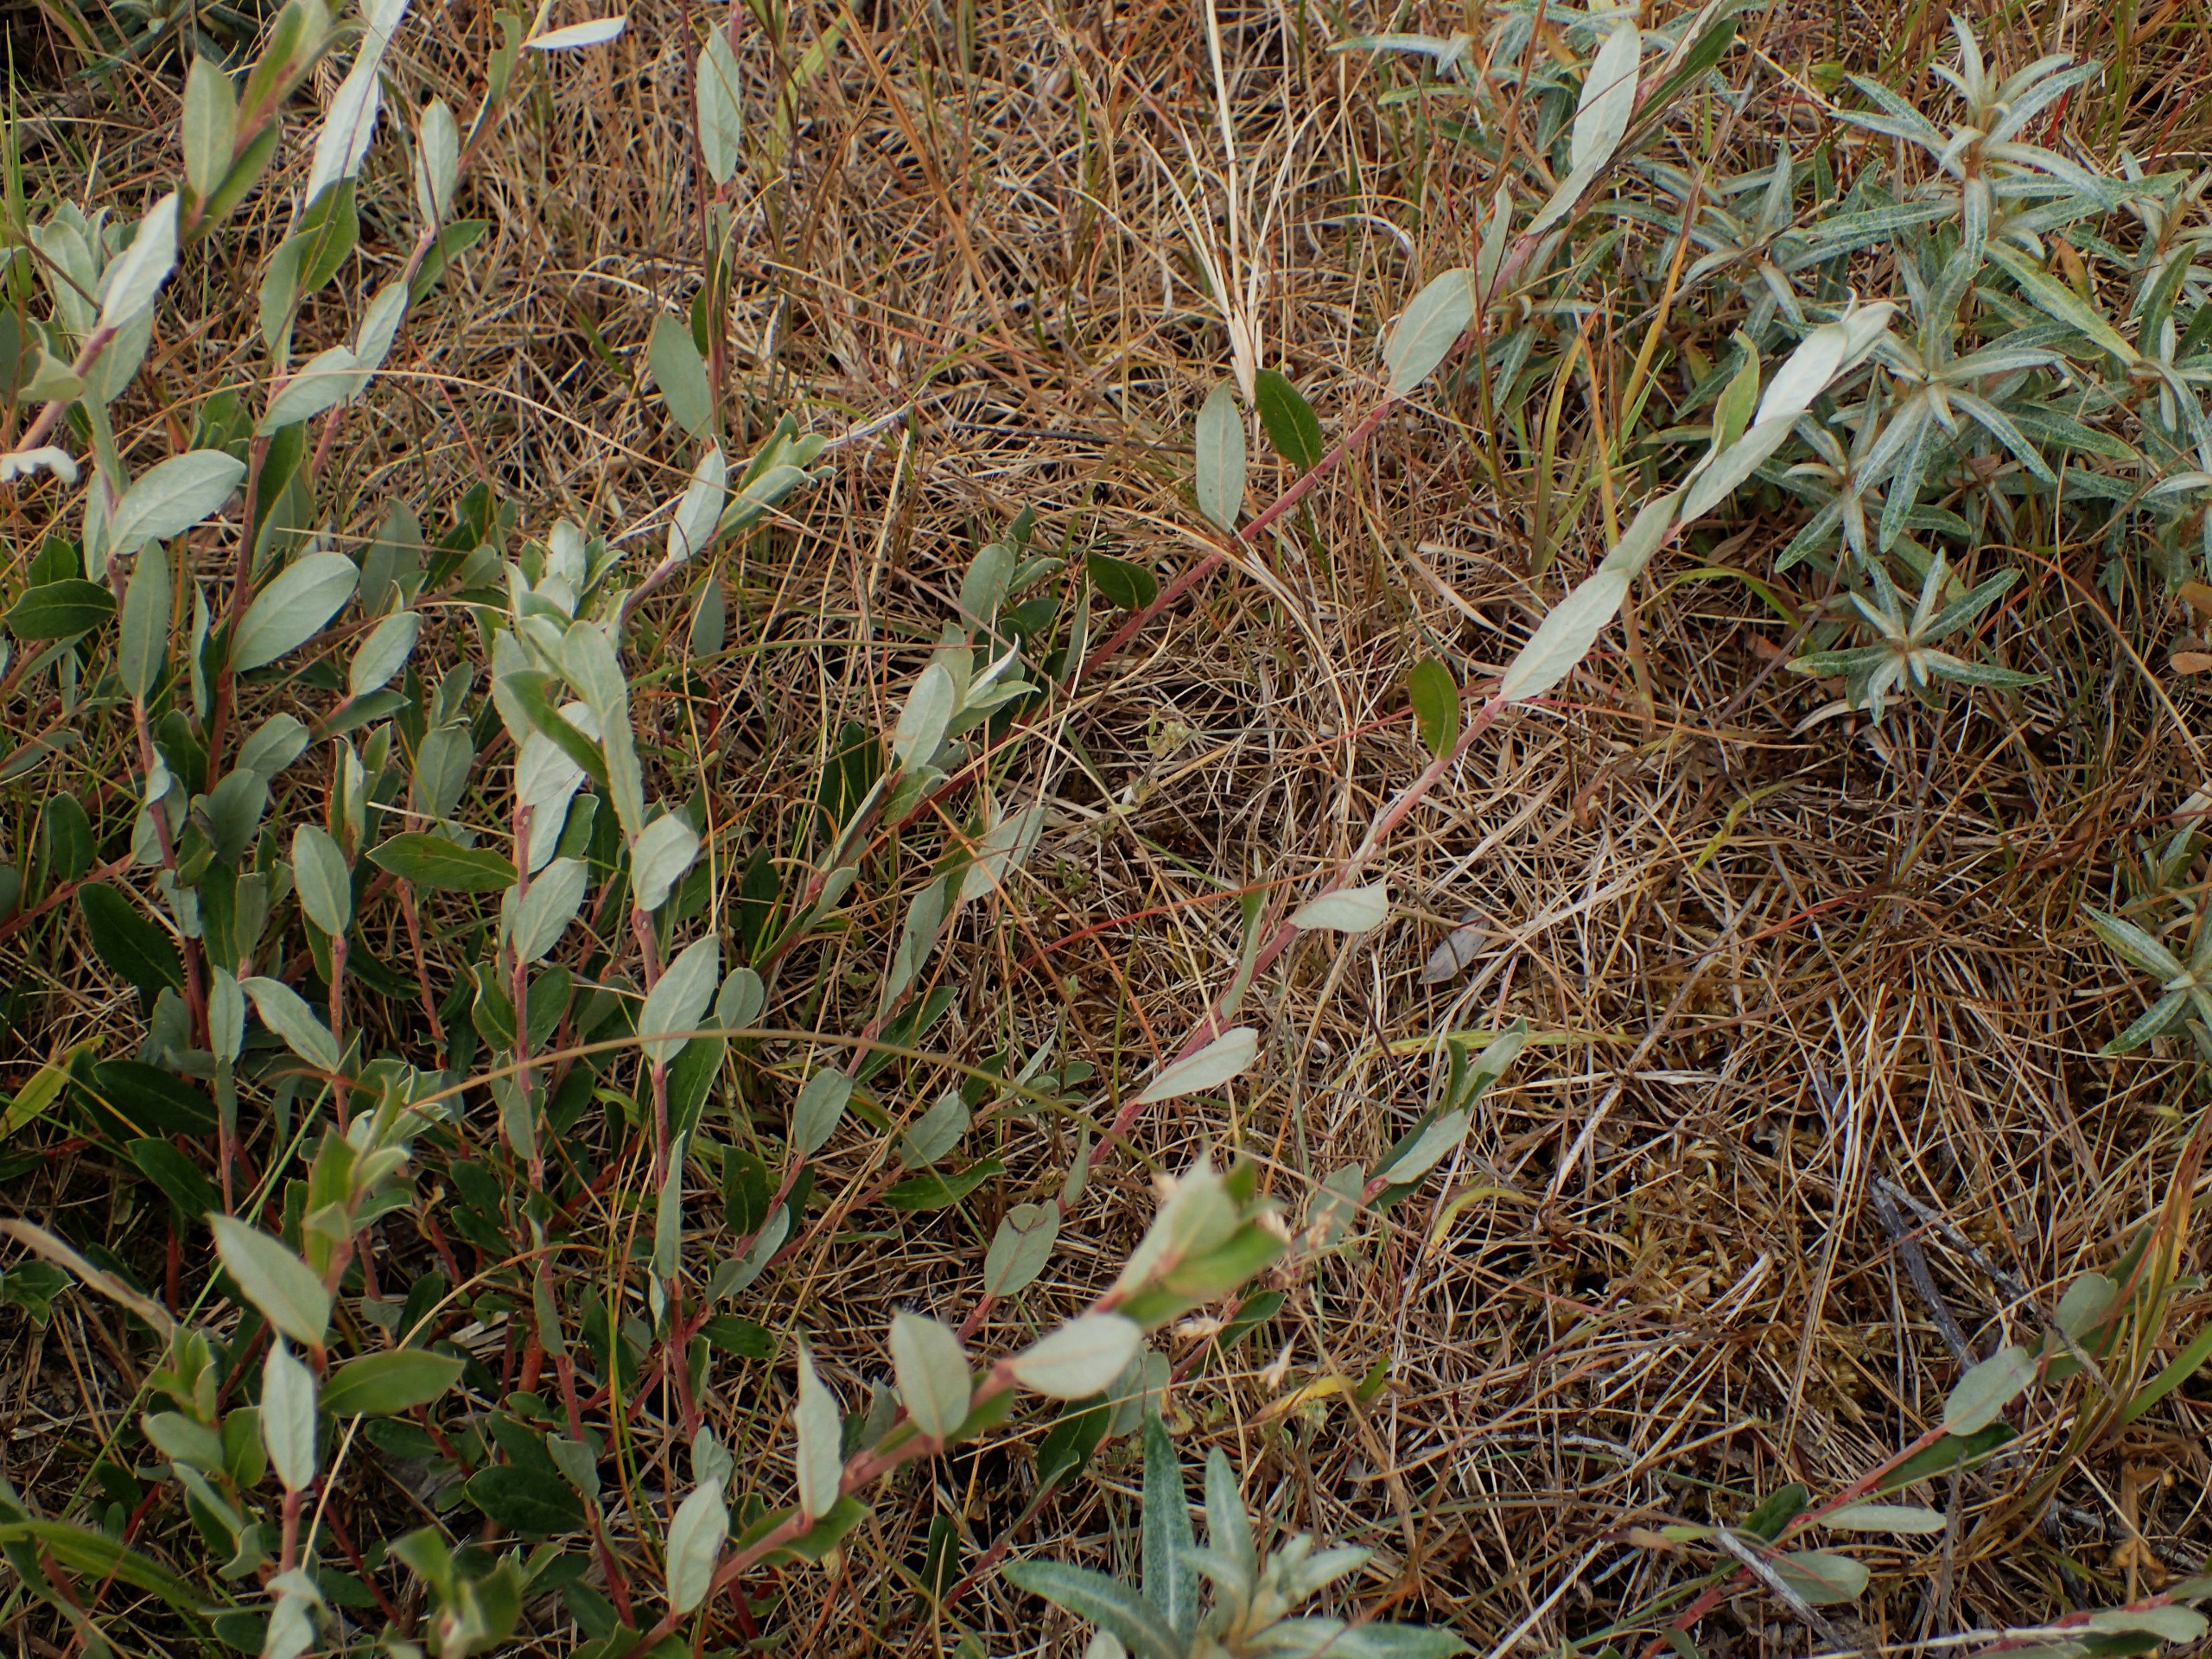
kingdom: Plantae
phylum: Tracheophyta
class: Magnoliopsida
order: Malpighiales
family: Salicaceae
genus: Salix
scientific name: Salix repens
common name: Krybende pil
